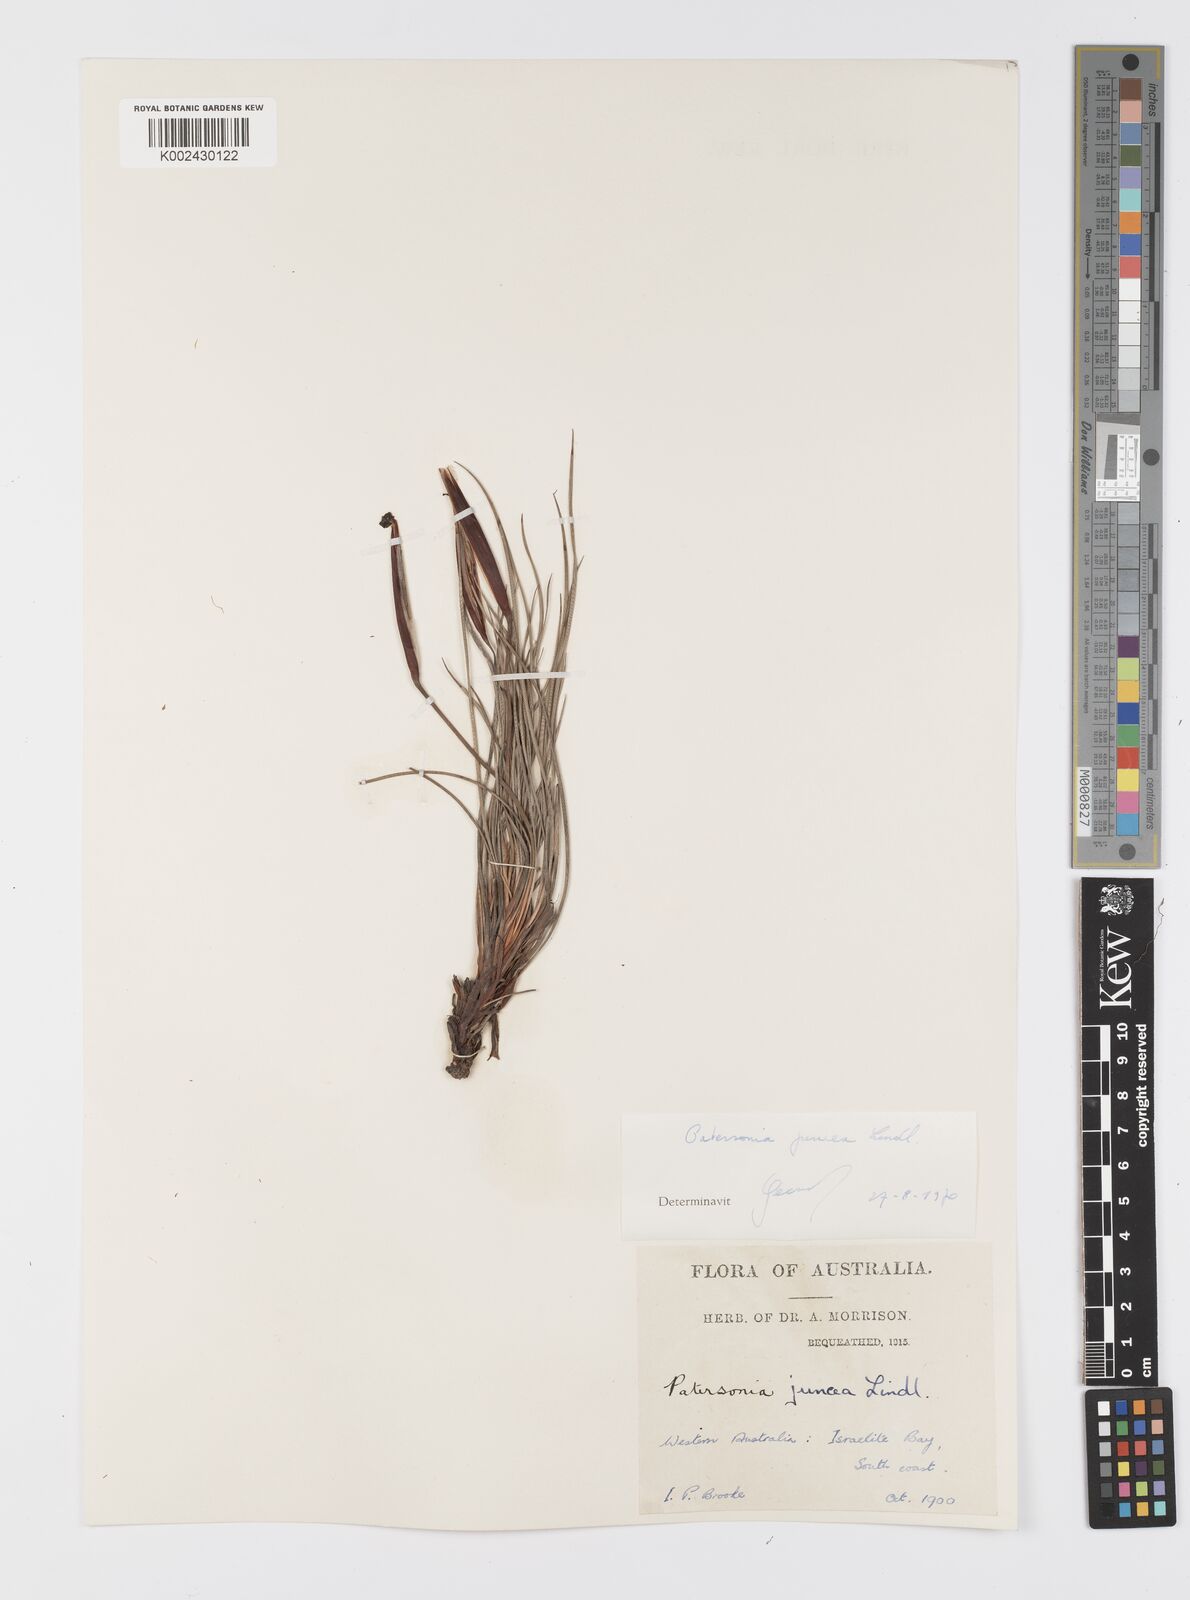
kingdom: Plantae
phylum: Tracheophyta
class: Liliopsida
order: Asparagales
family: Iridaceae
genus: Patersonia
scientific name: Patersonia juncea
